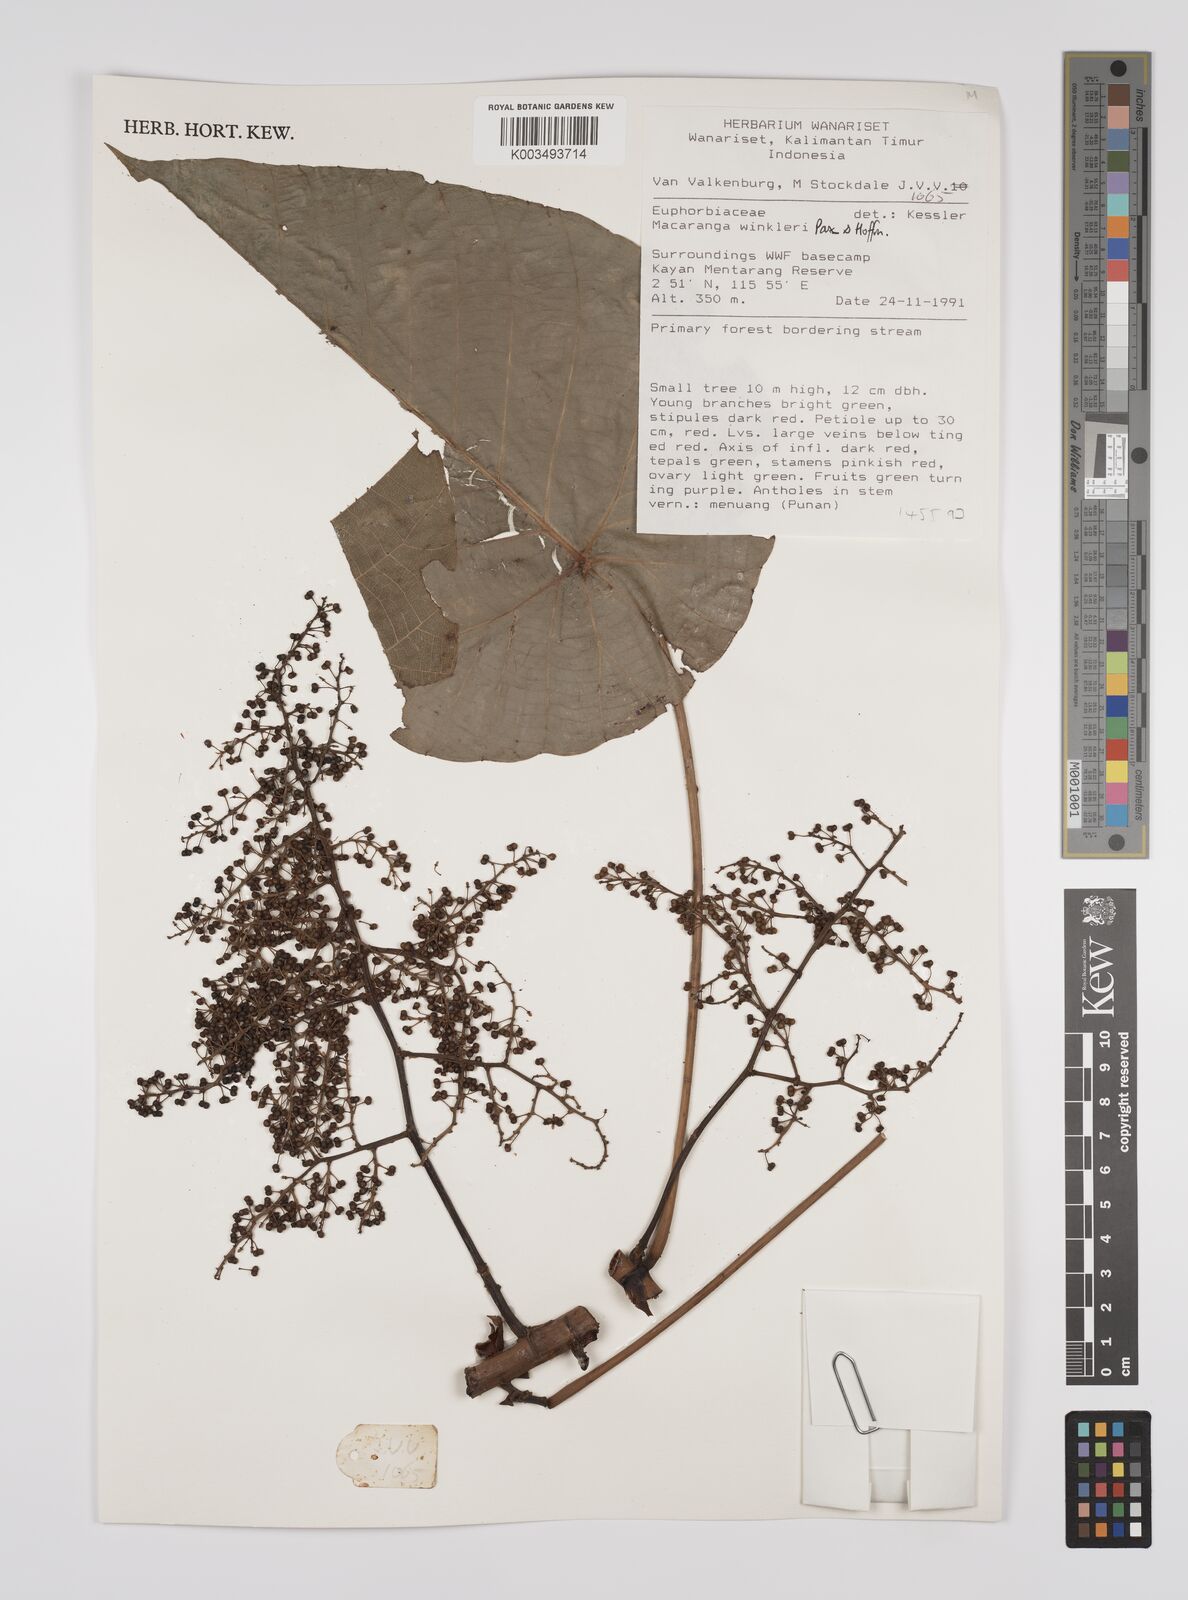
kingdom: Plantae
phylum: Tracheophyta
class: Magnoliopsida
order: Malpighiales
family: Euphorbiaceae
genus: Macaranga
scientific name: Macaranga winkleri
